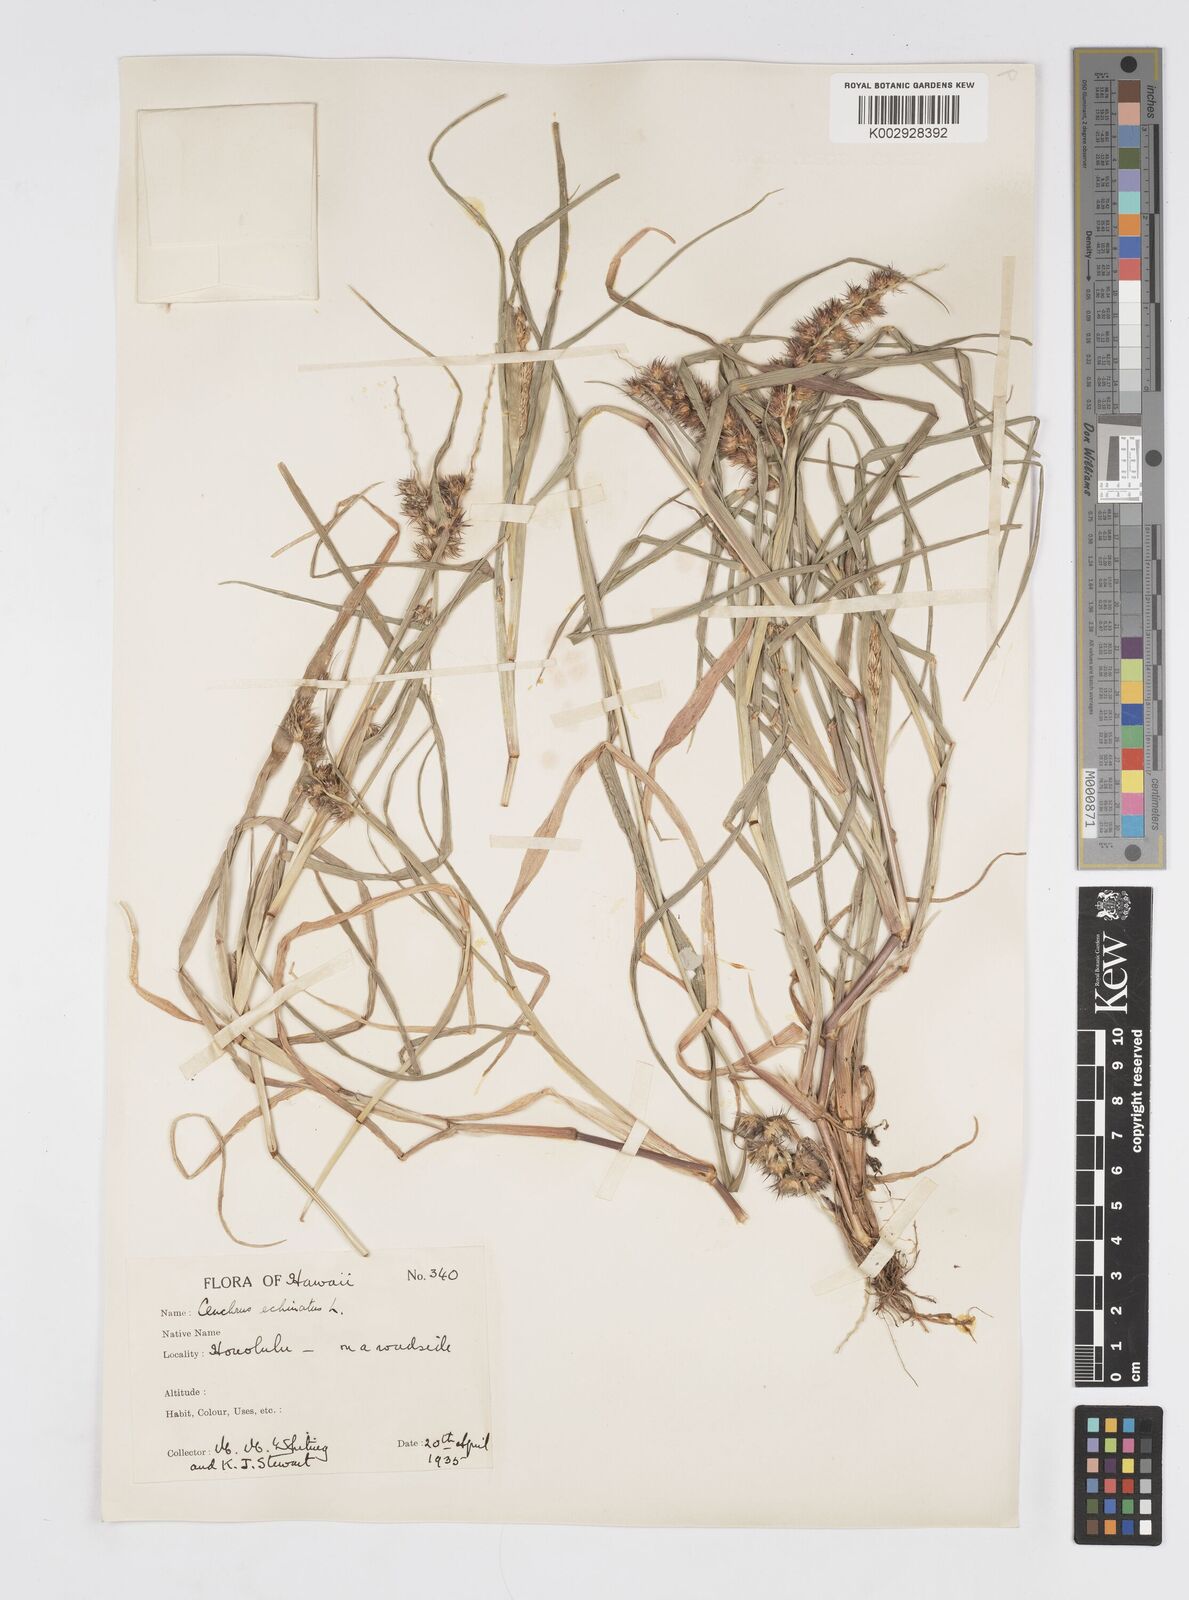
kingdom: Plantae
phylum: Tracheophyta
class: Liliopsida
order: Poales
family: Poaceae
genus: Cenchrus
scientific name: Cenchrus echinatus
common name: Southern sandbur
